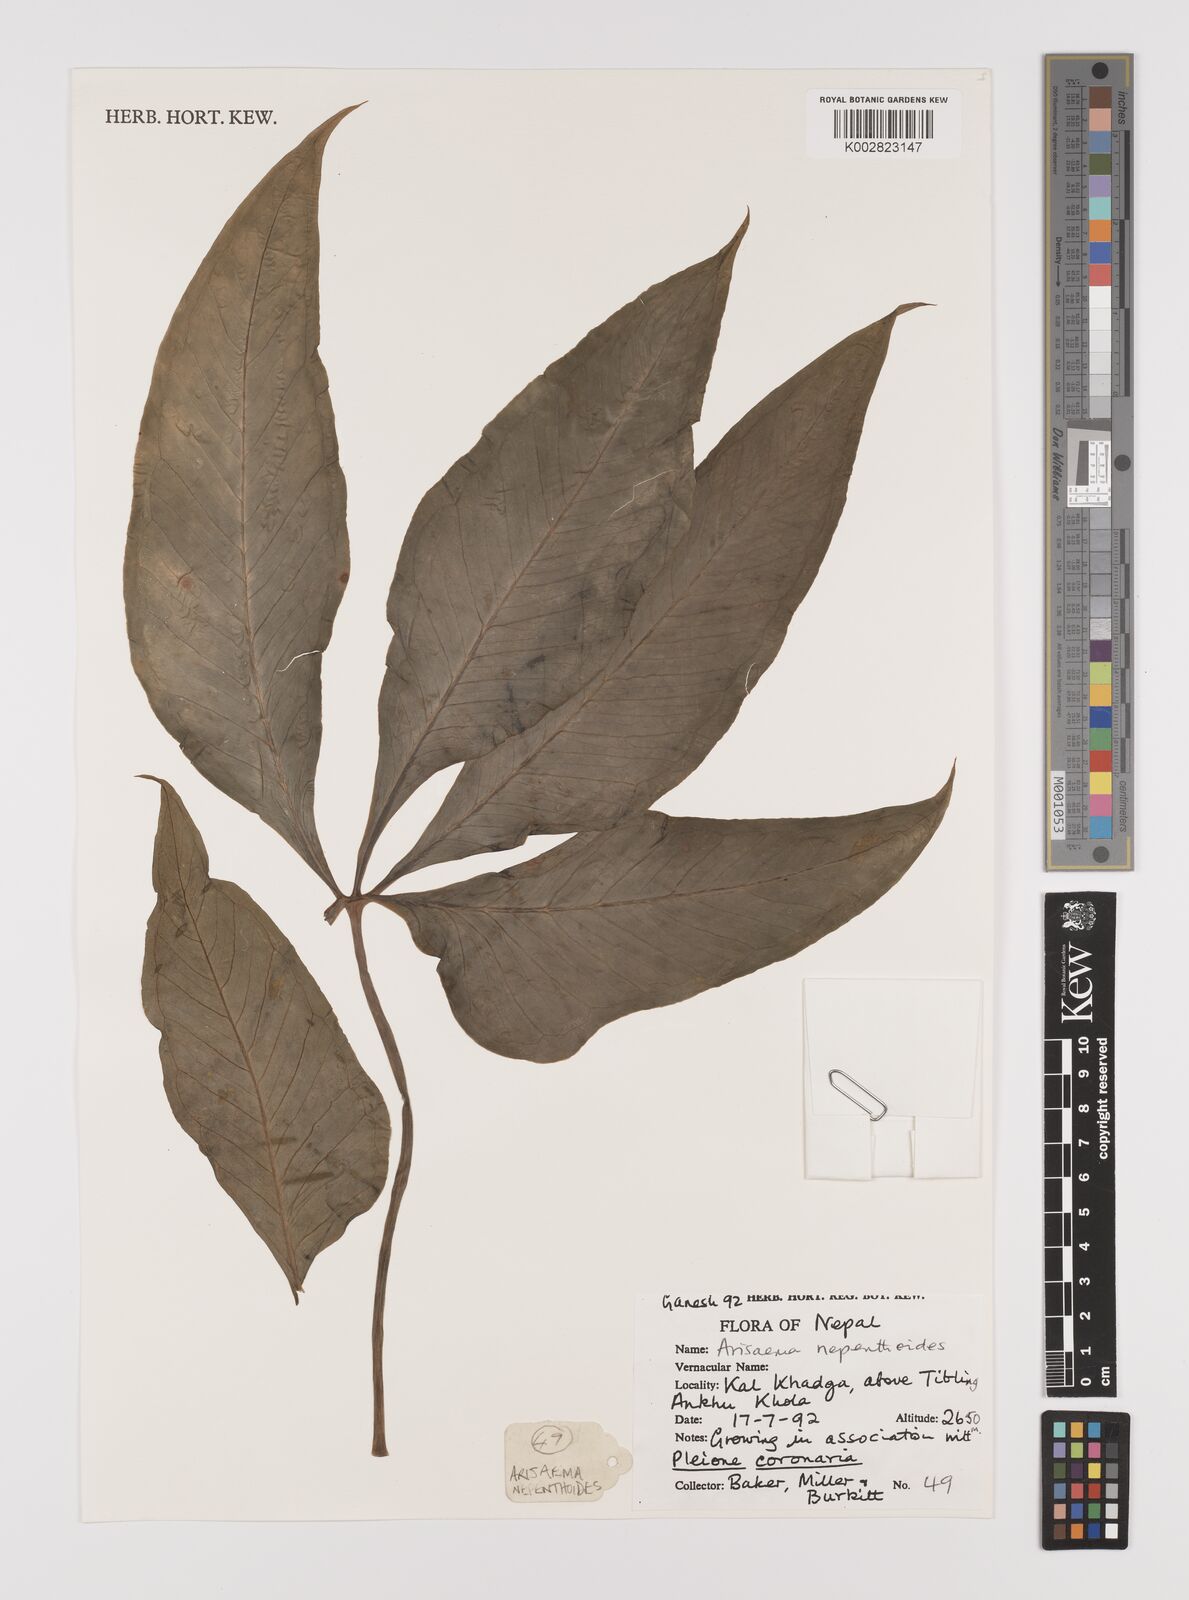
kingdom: Plantae
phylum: Tracheophyta
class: Liliopsida
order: Alismatales
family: Araceae
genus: Arisaema
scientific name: Arisaema nepenthoides
